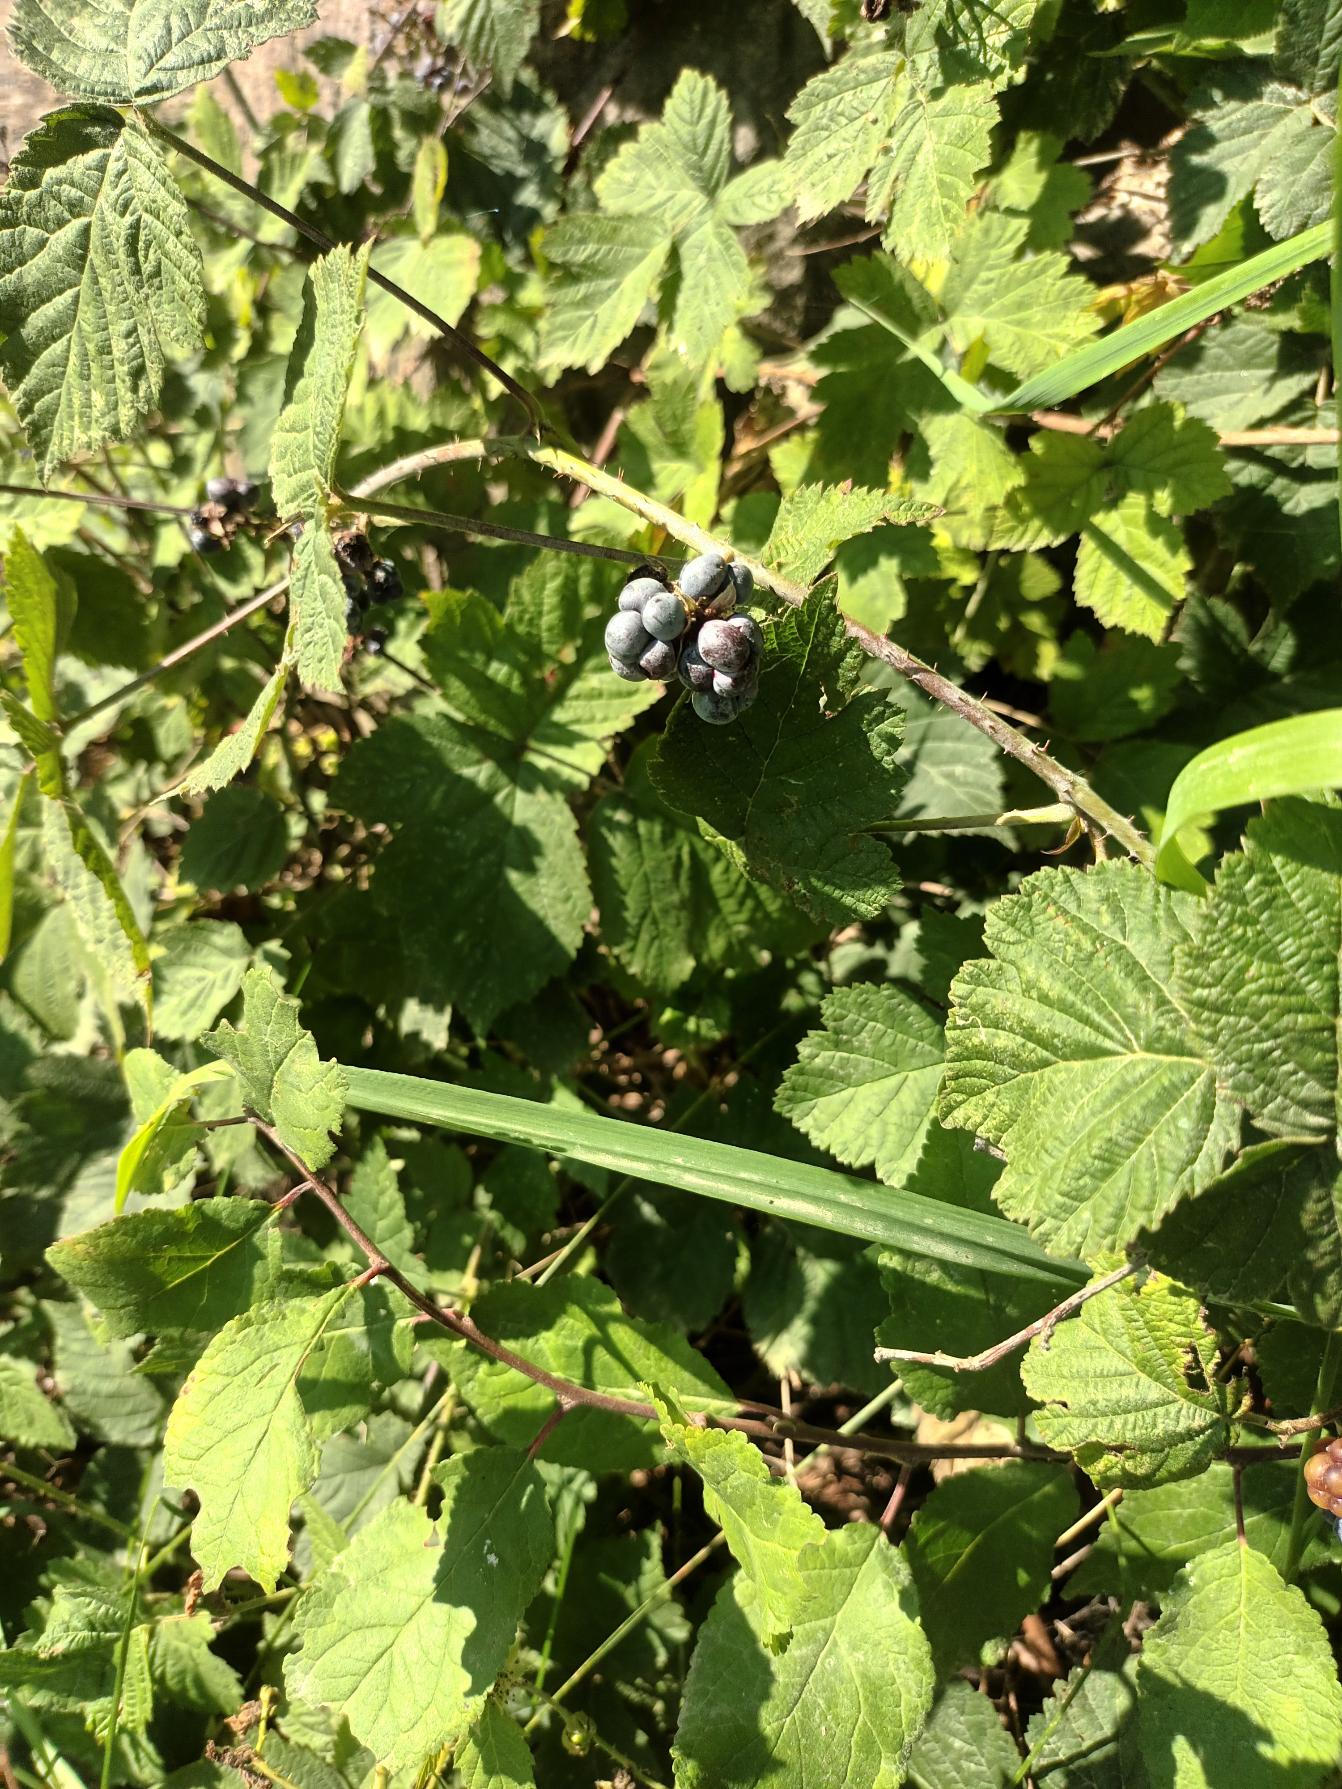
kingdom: Plantae
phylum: Tracheophyta
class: Magnoliopsida
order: Rosales
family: Rosaceae
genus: Rubus
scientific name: Rubus caesius
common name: Korbær
